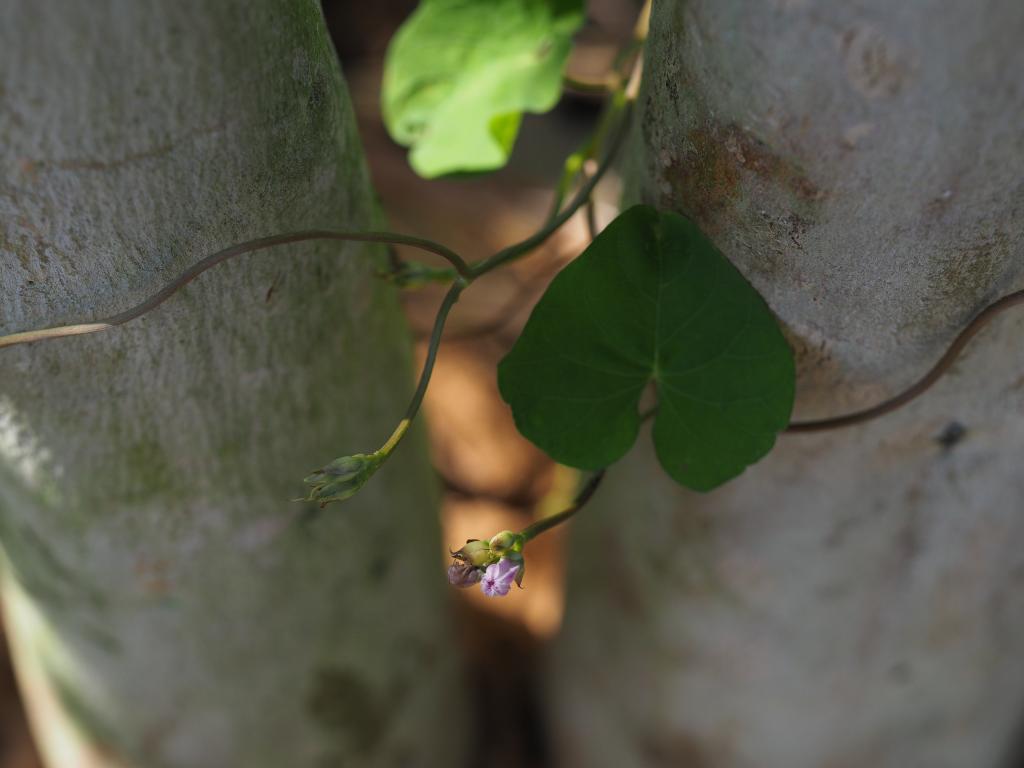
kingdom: Plantae
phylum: Tracheophyta
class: Magnoliopsida
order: Solanales
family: Convolvulaceae
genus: Ipomoea
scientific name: Ipomoea leucantha
